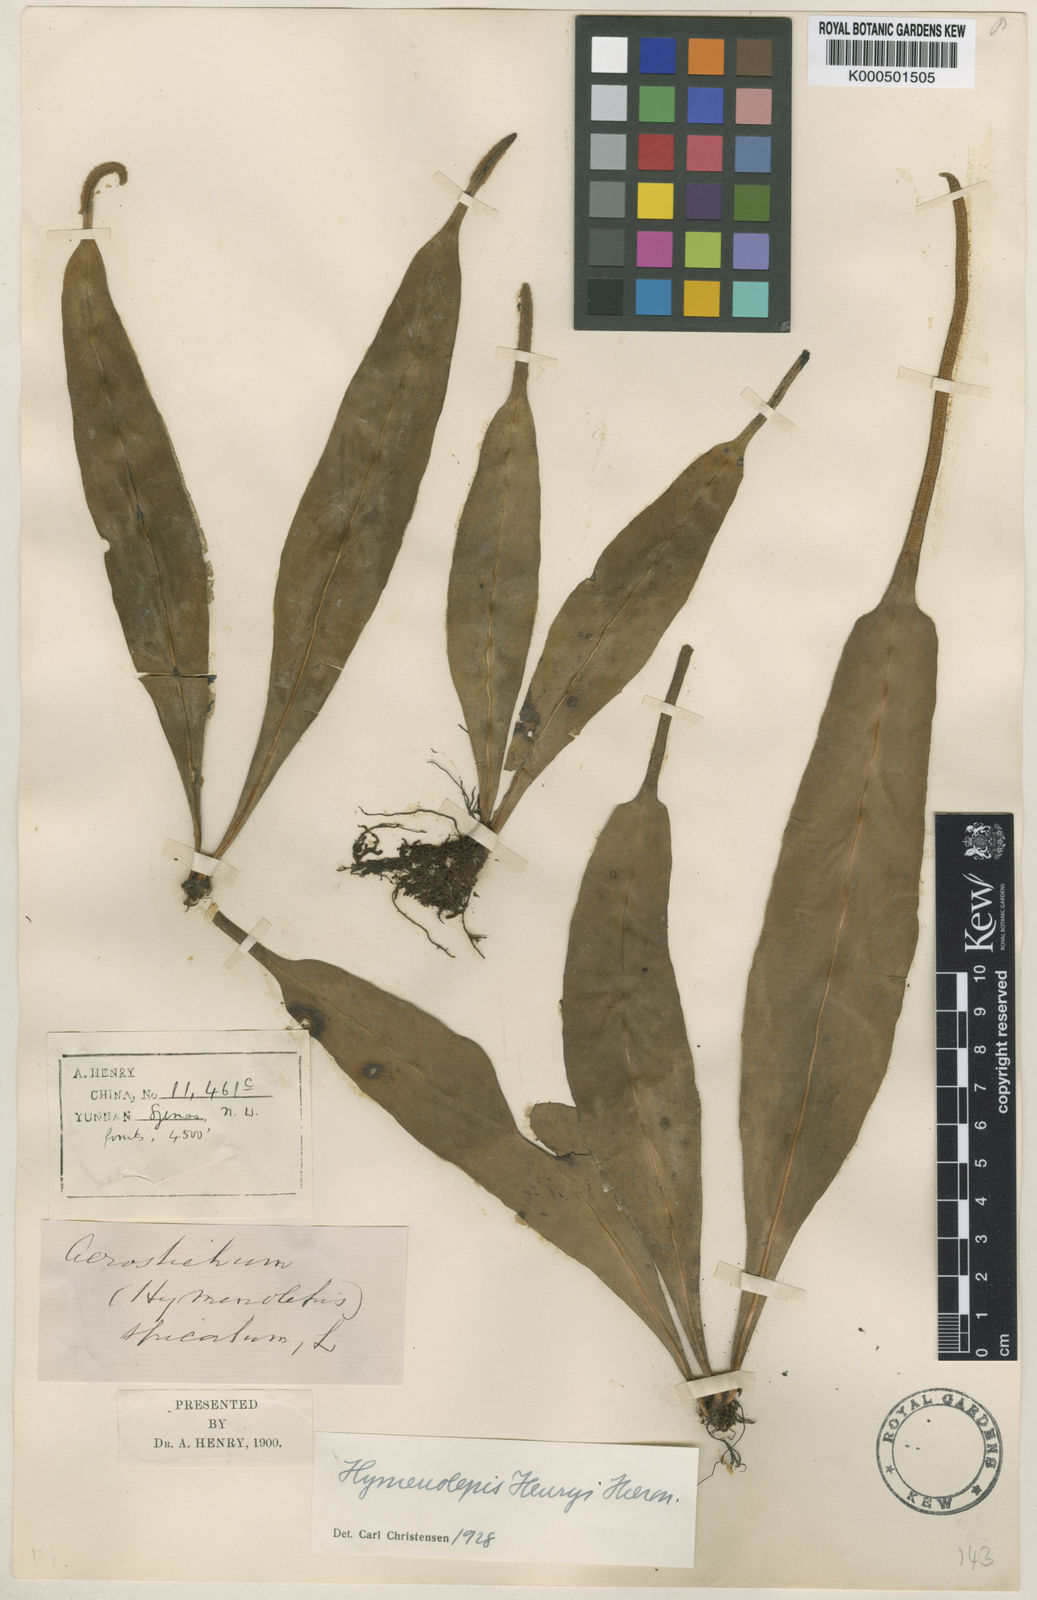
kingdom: Plantae
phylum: Tracheophyta
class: Polypodiopsida
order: Polypodiales
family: Polypodiaceae
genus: Lepisorus
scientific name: Lepisorus henryi
